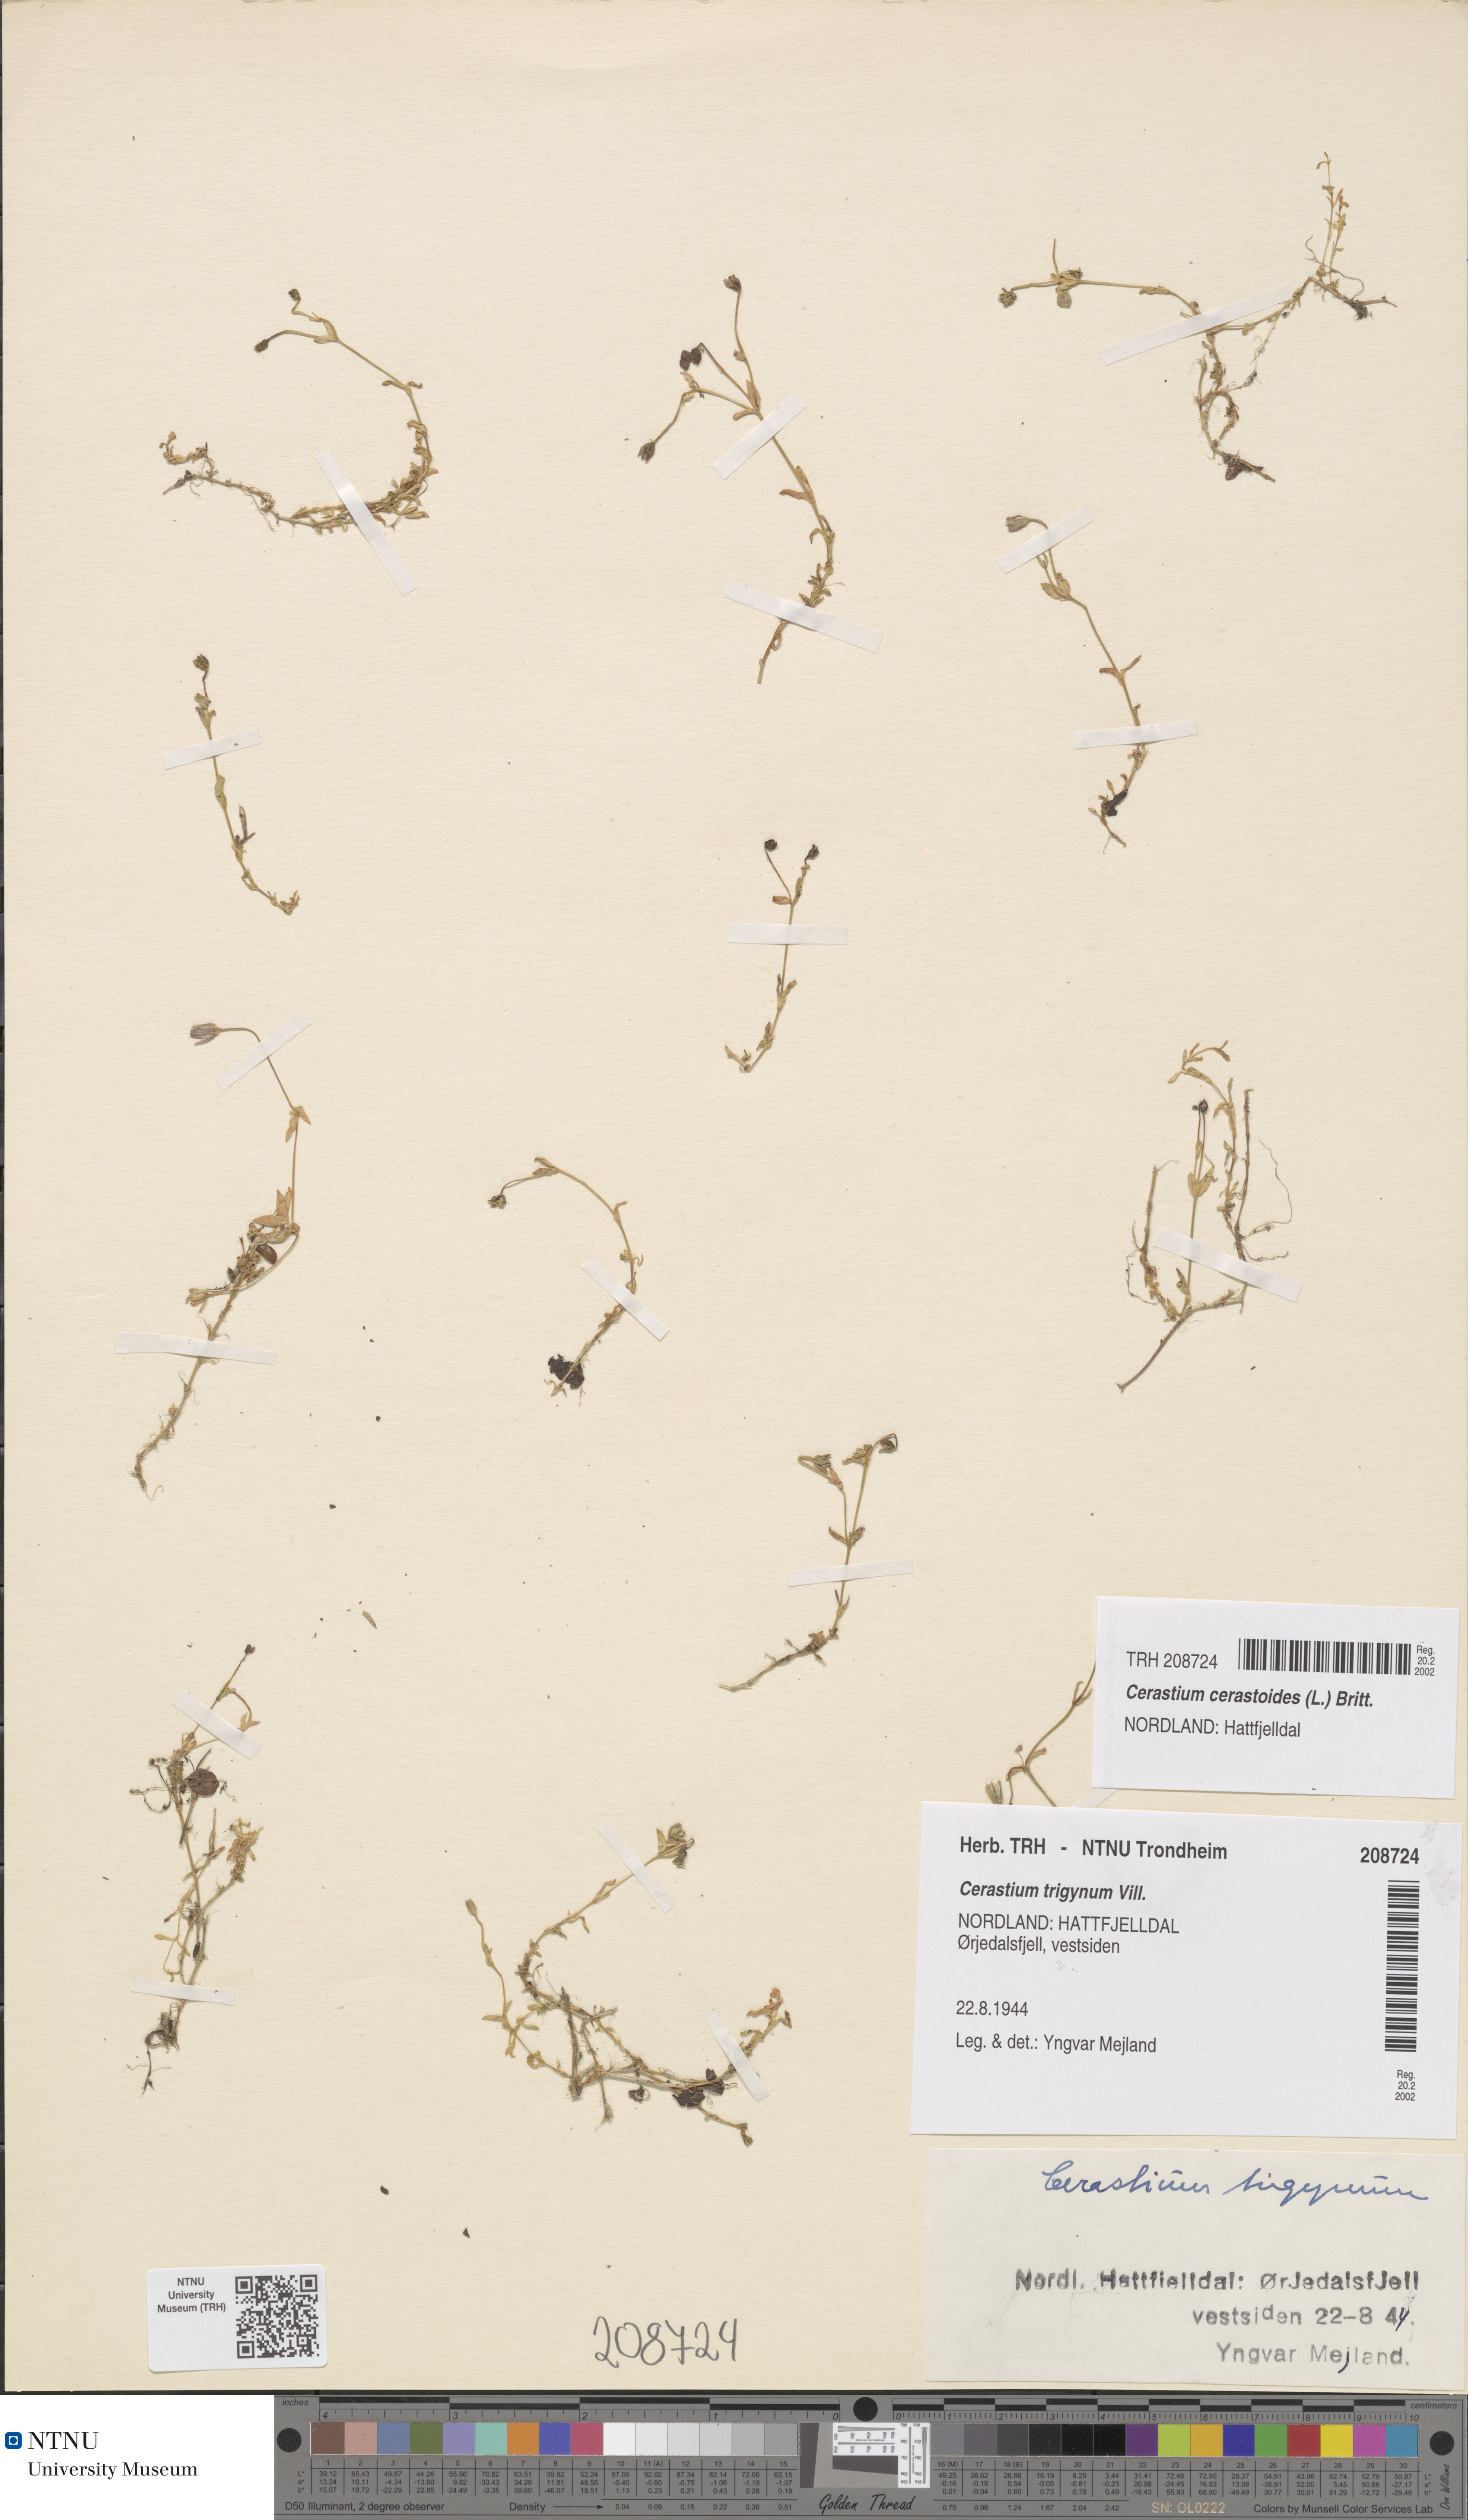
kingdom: Plantae
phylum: Tracheophyta
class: Magnoliopsida
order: Caryophyllales
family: Caryophyllaceae
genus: Dichodon
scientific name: Dichodon cerastoides
